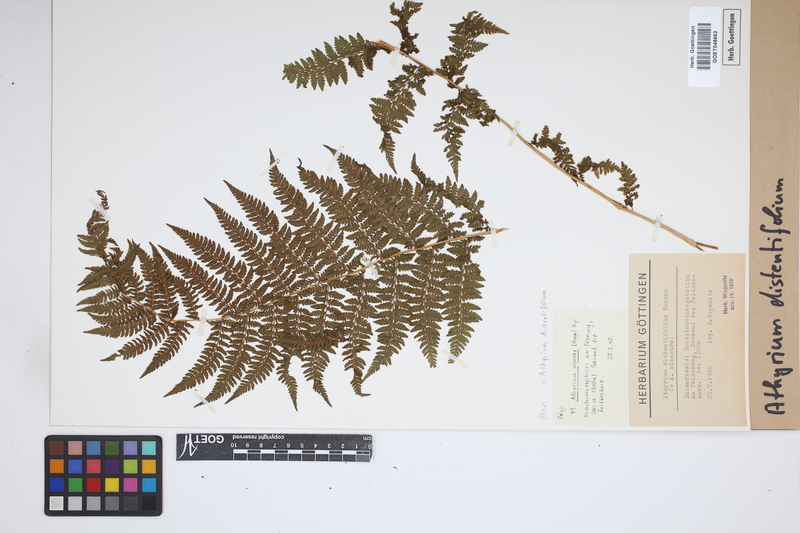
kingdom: Plantae
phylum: Tracheophyta
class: Polypodiopsida
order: Polypodiales
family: Athyriaceae
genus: Pseudathyrium
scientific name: Pseudathyrium alpestre
